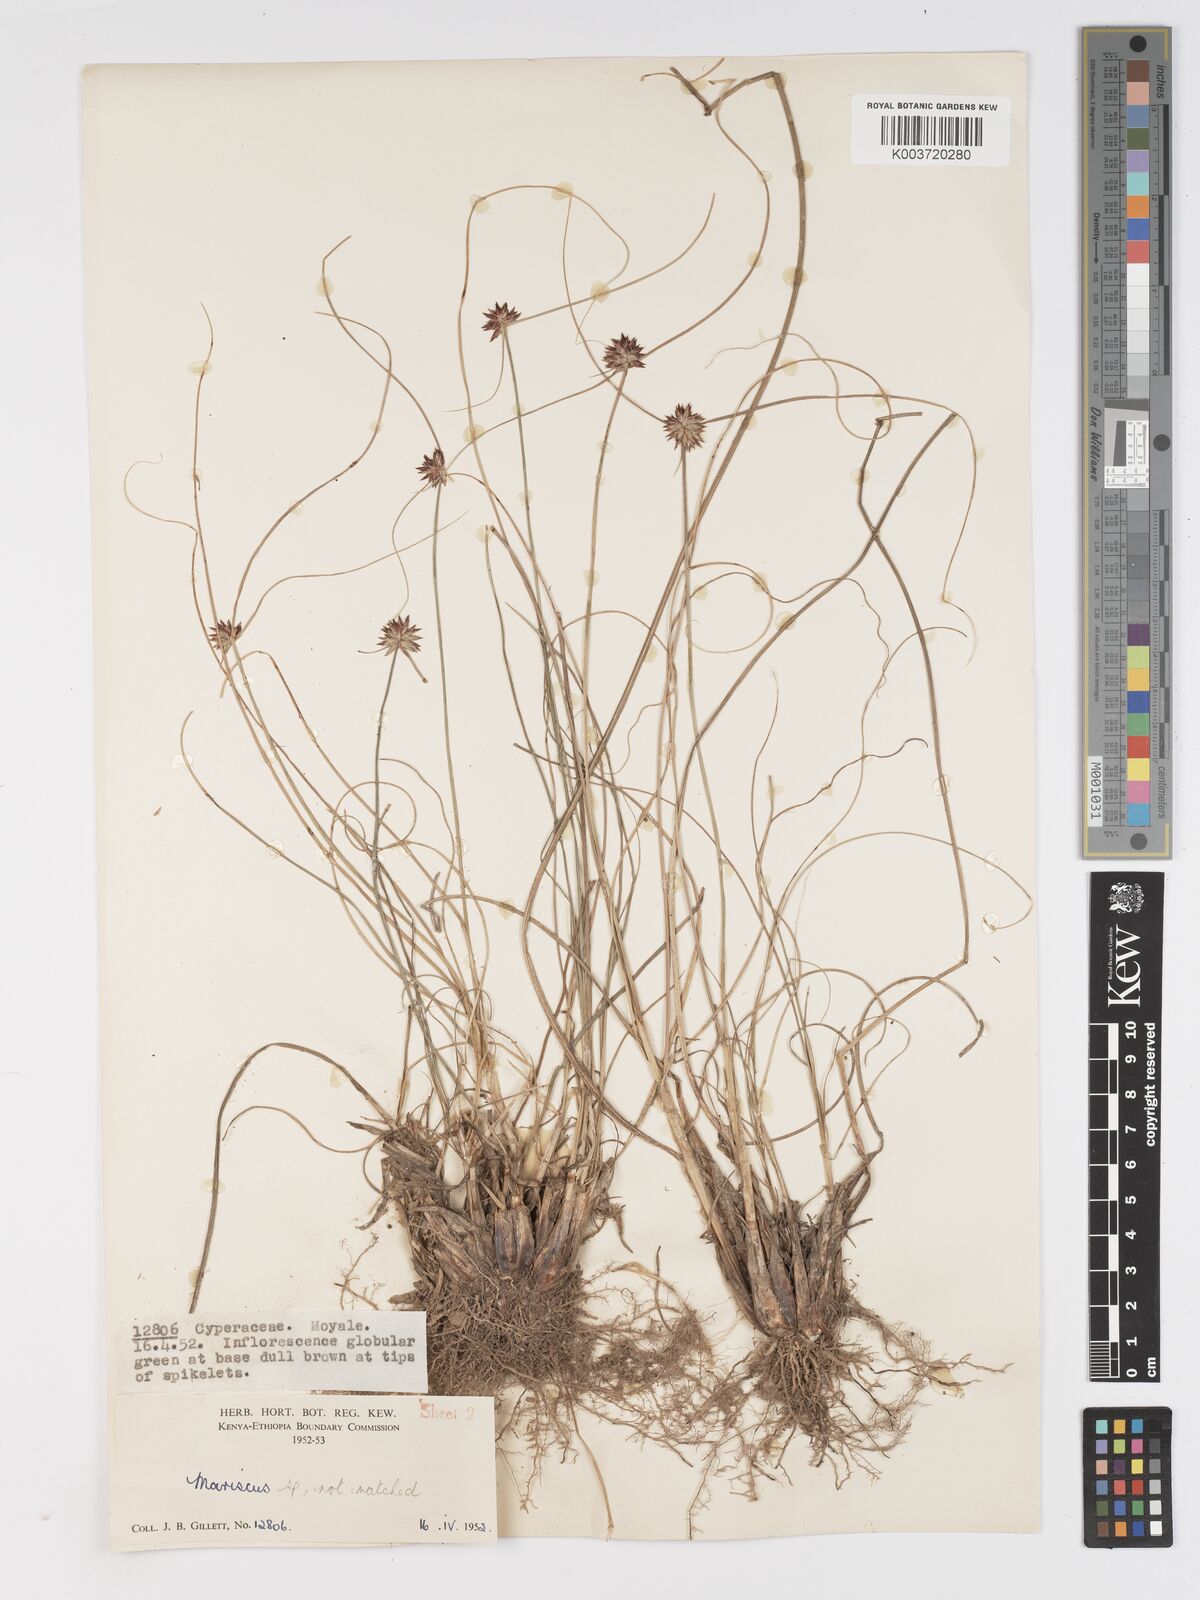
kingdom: Plantae
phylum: Tracheophyta
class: Liliopsida
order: Poales
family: Cyperaceae
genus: Cyperus
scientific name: Cyperus
